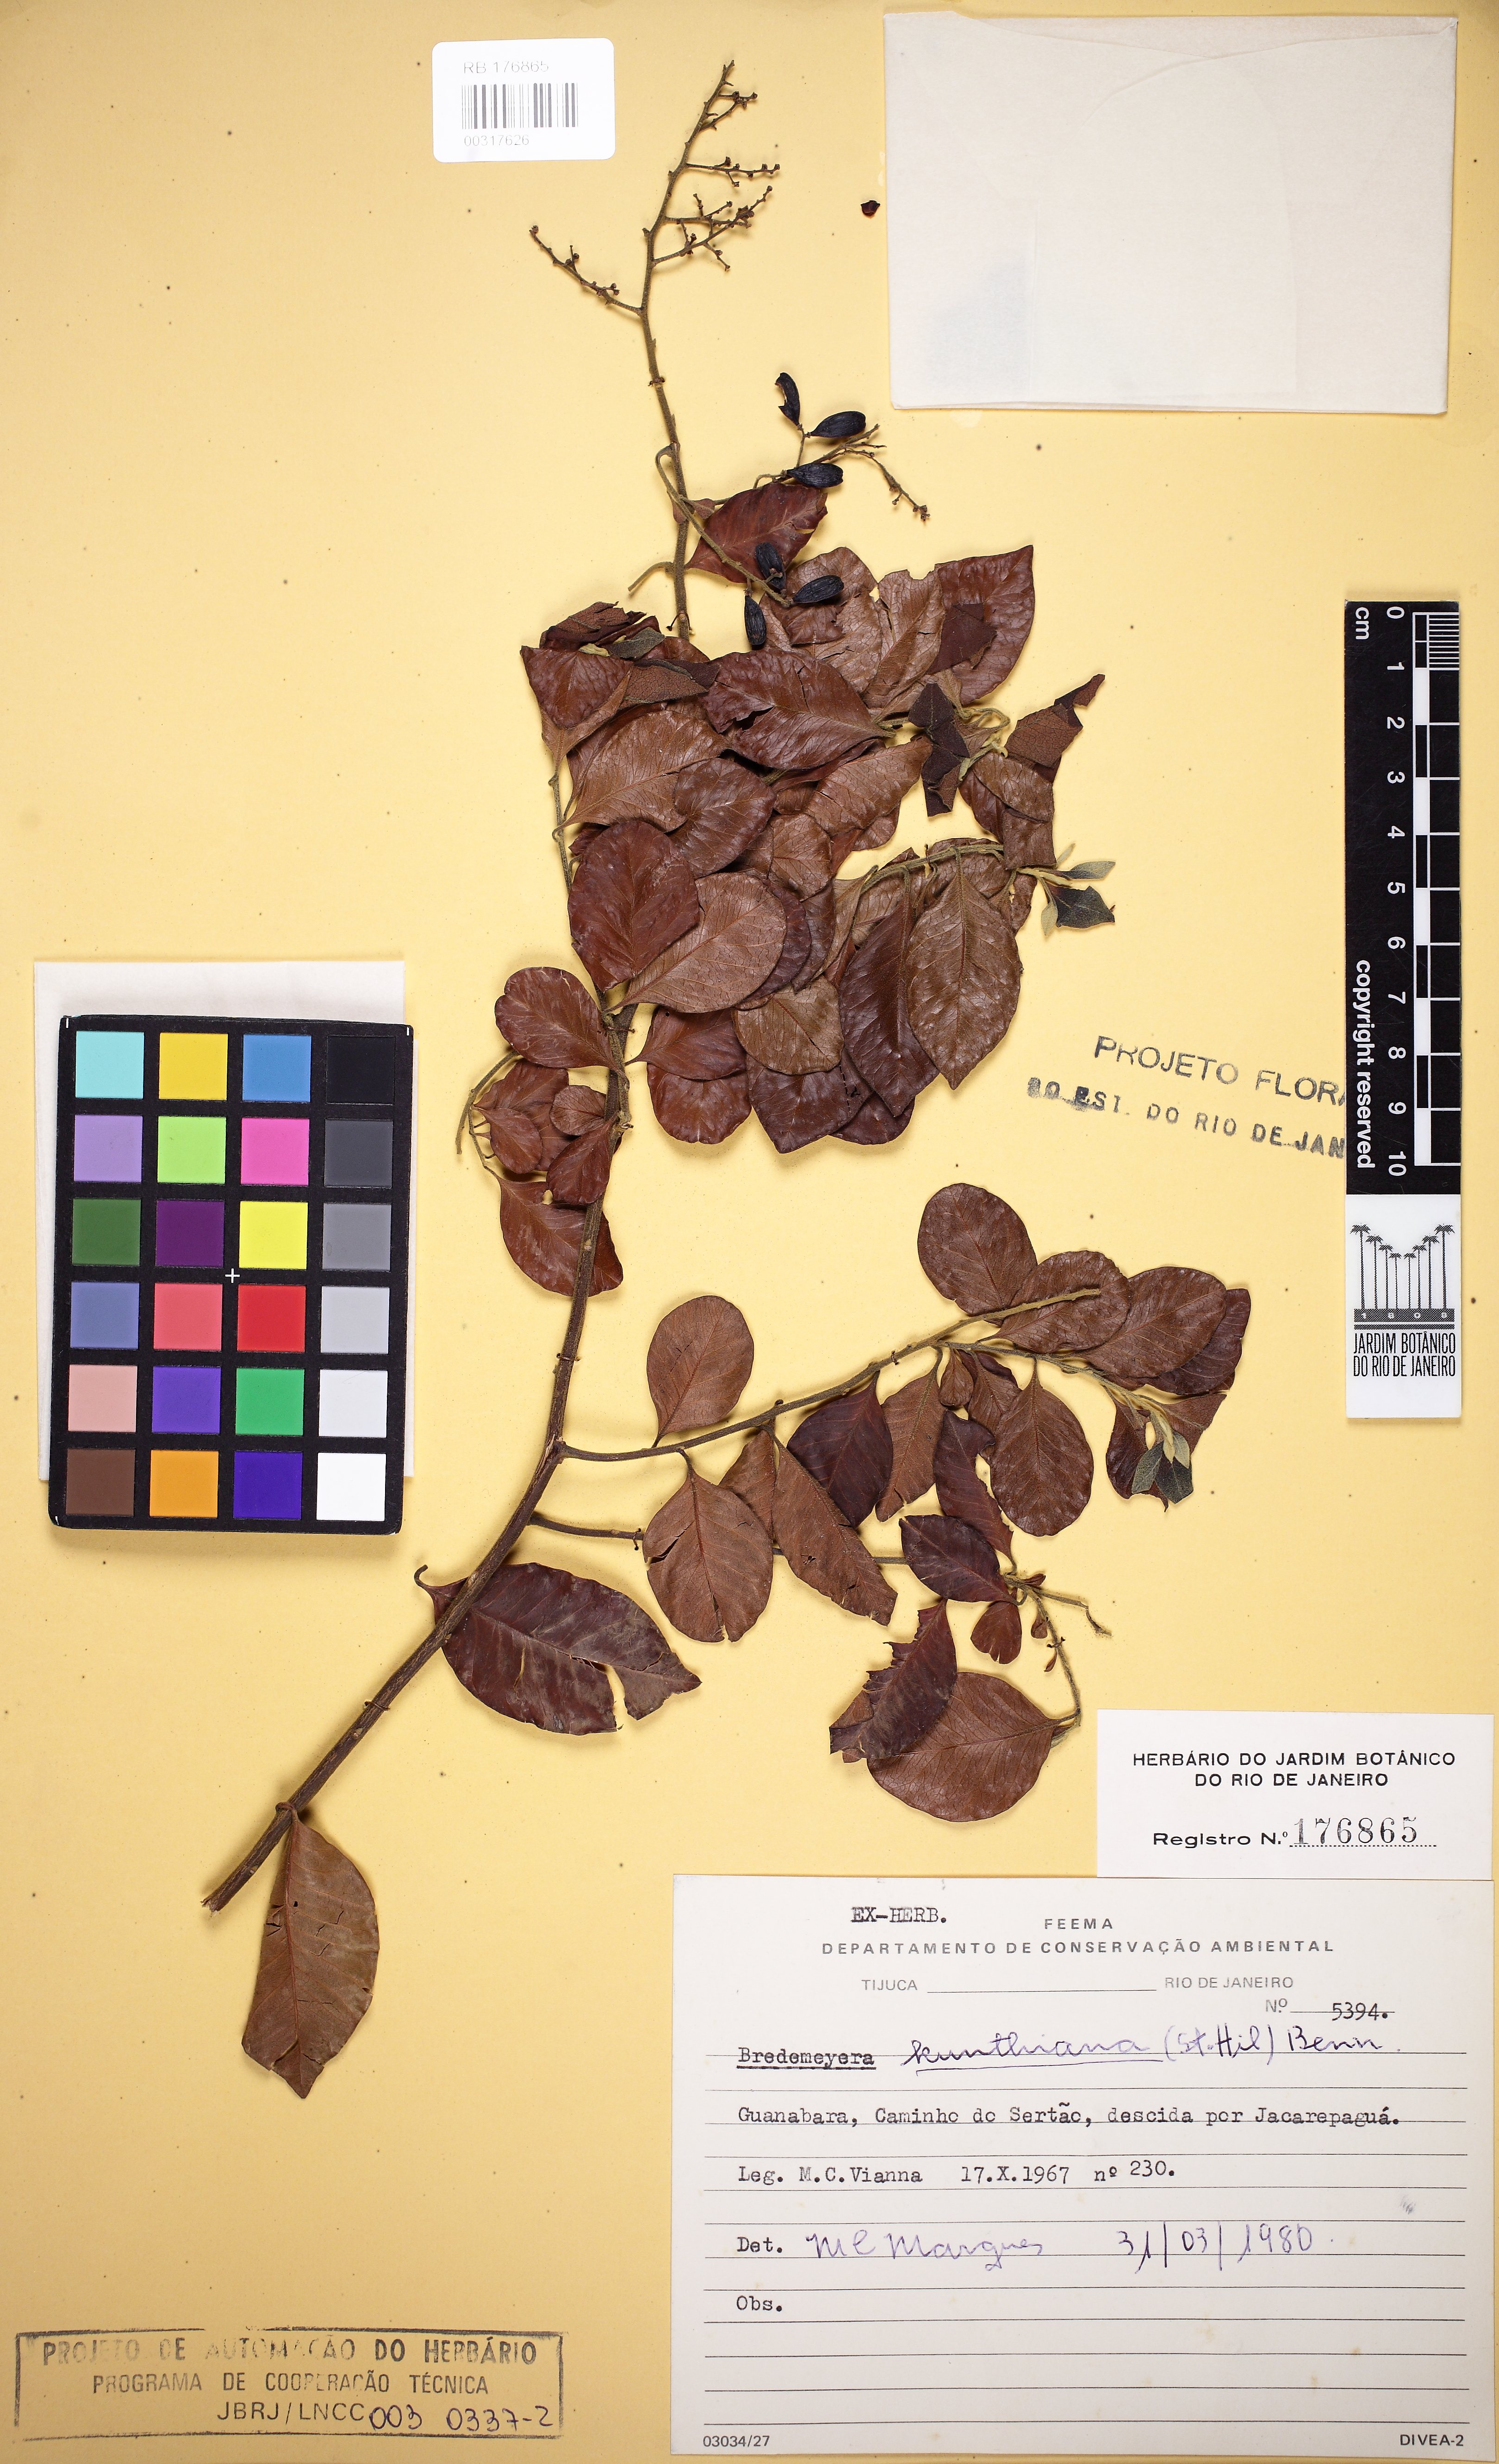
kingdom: Plantae
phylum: Tracheophyta
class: Magnoliopsida
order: Fabales
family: Polygalaceae
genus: Bredemeyera
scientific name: Bredemeyera hebeclada
